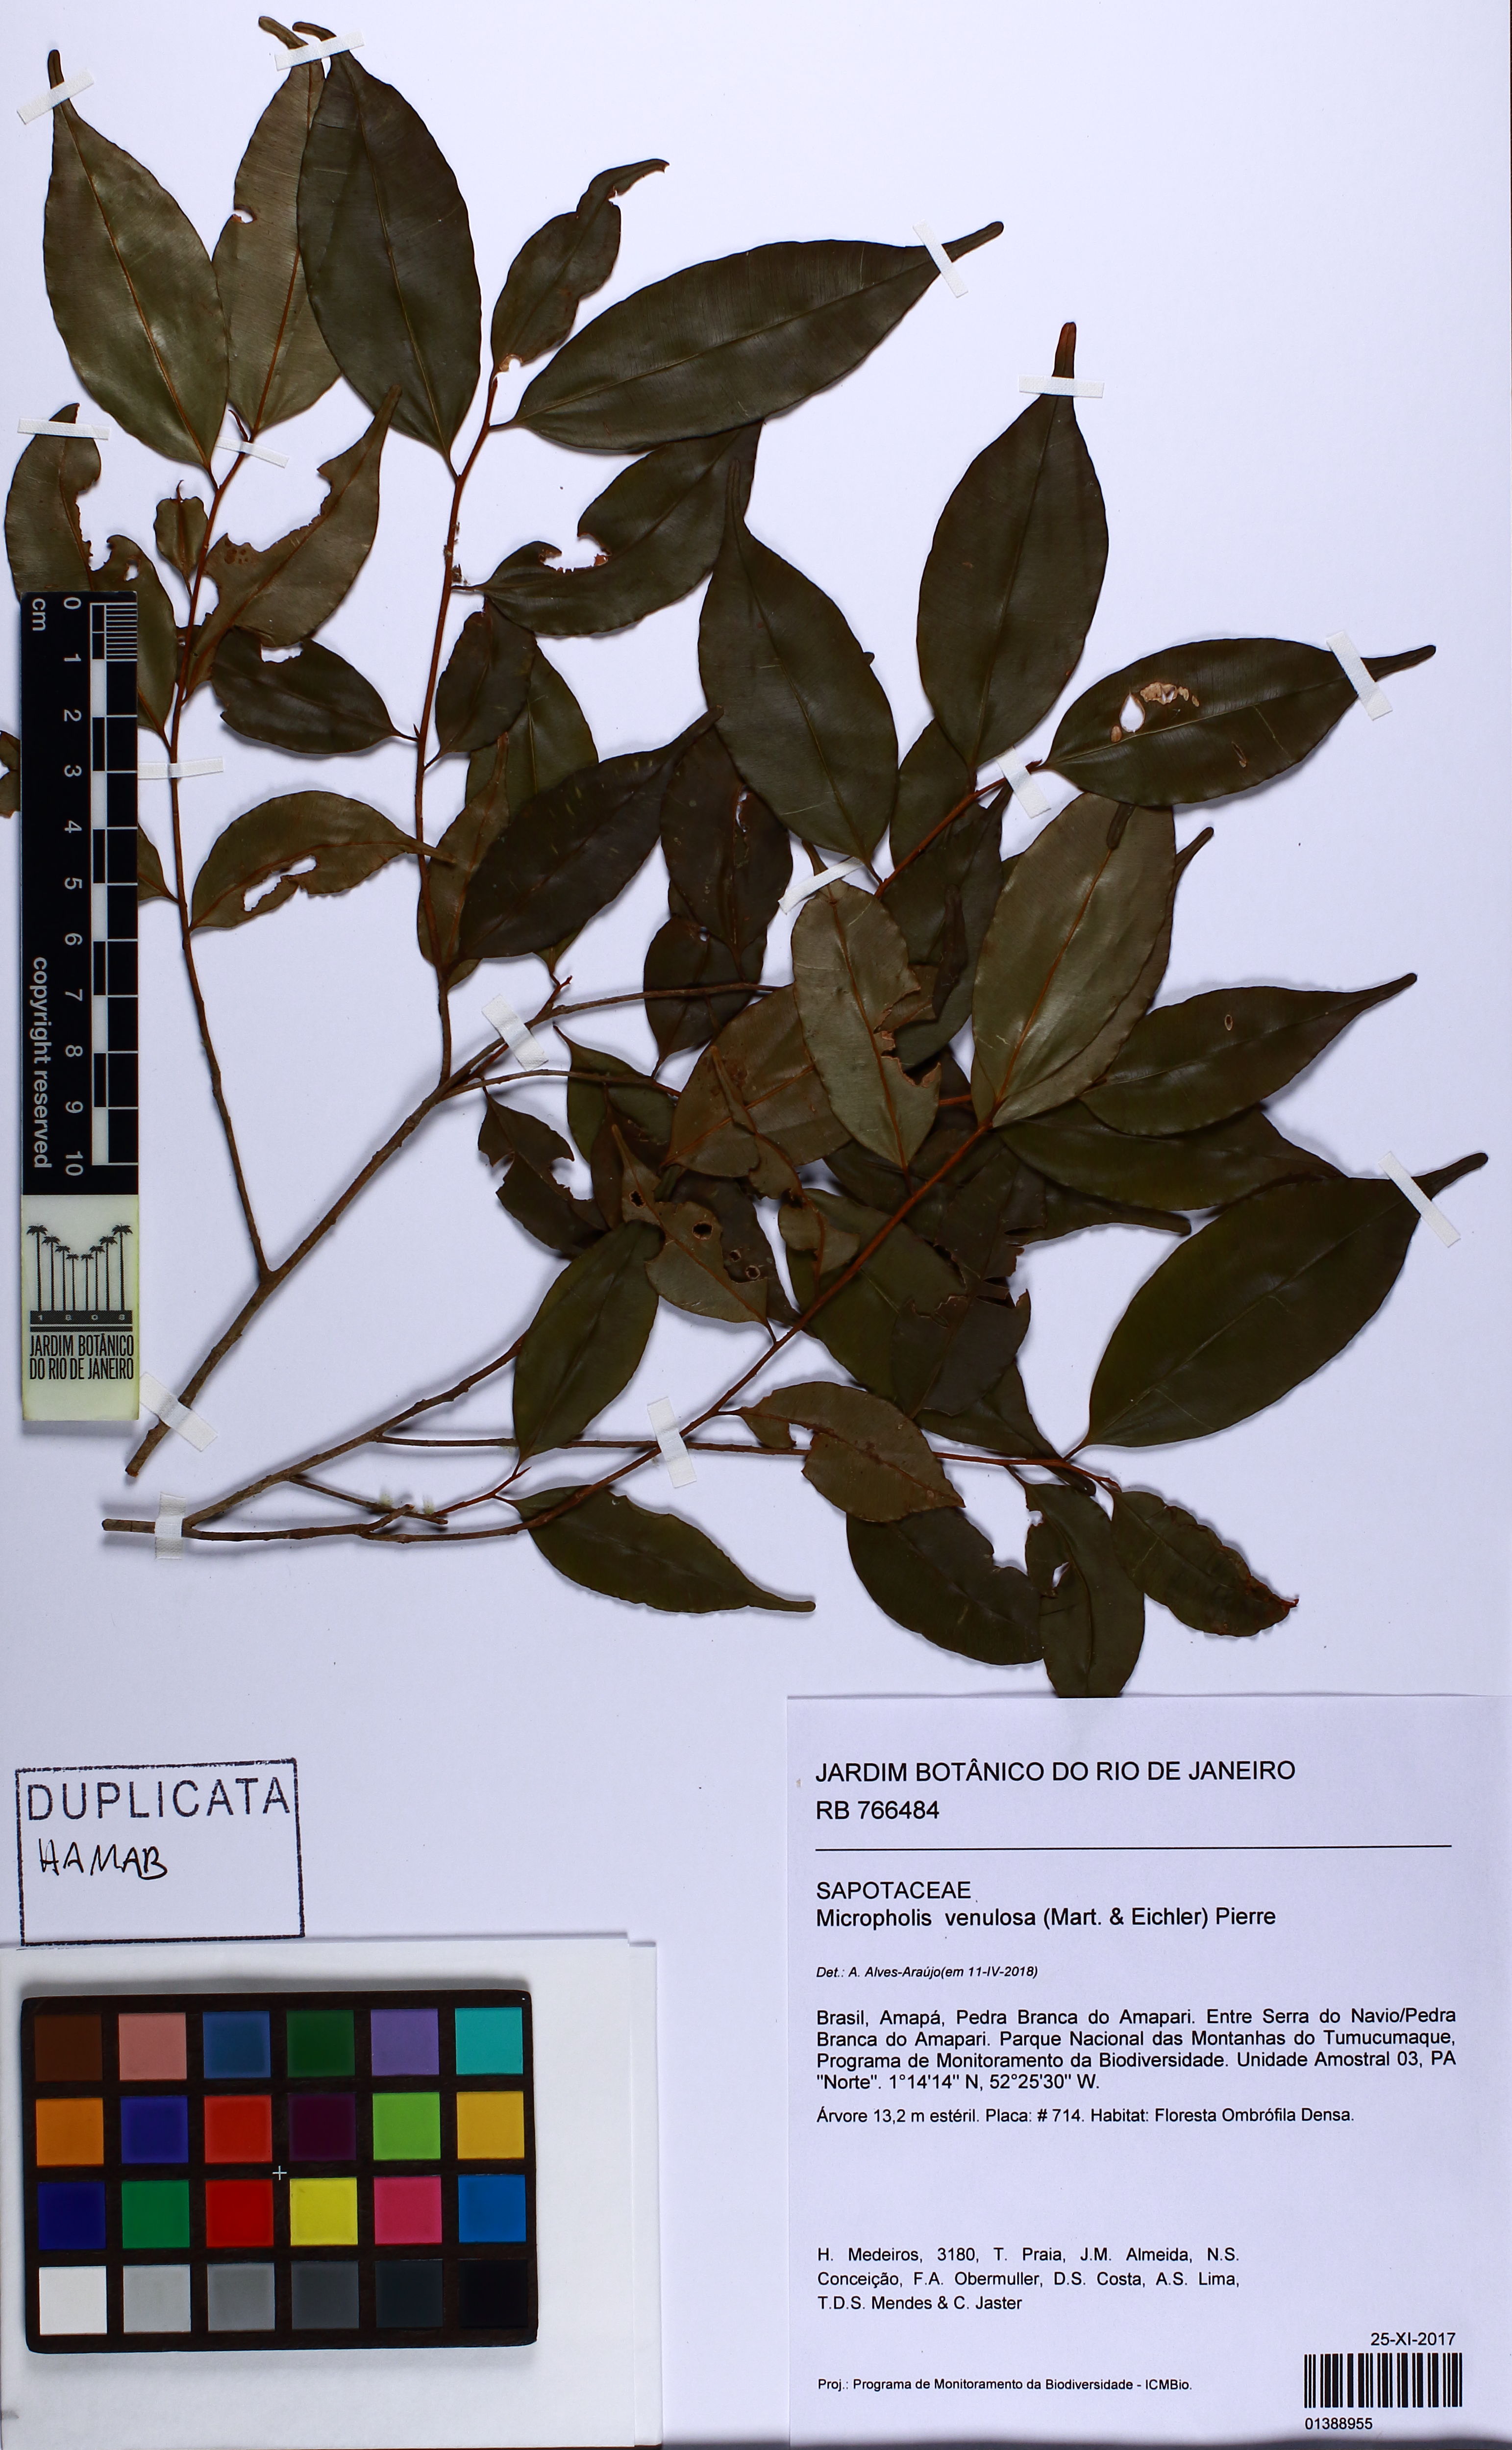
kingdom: Plantae
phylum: Tracheophyta
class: Magnoliopsida
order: Ericales
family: Sapotaceae
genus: Micropholis
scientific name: Micropholis venulosa
